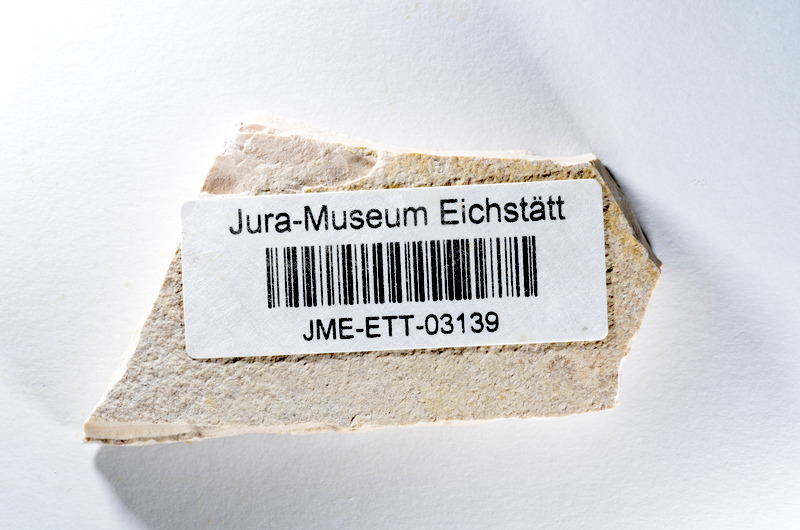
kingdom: Animalia
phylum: Chordata
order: Salmoniformes
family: Orthogonikleithridae
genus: Orthogonikleithrus
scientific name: Orthogonikleithrus hoelli
